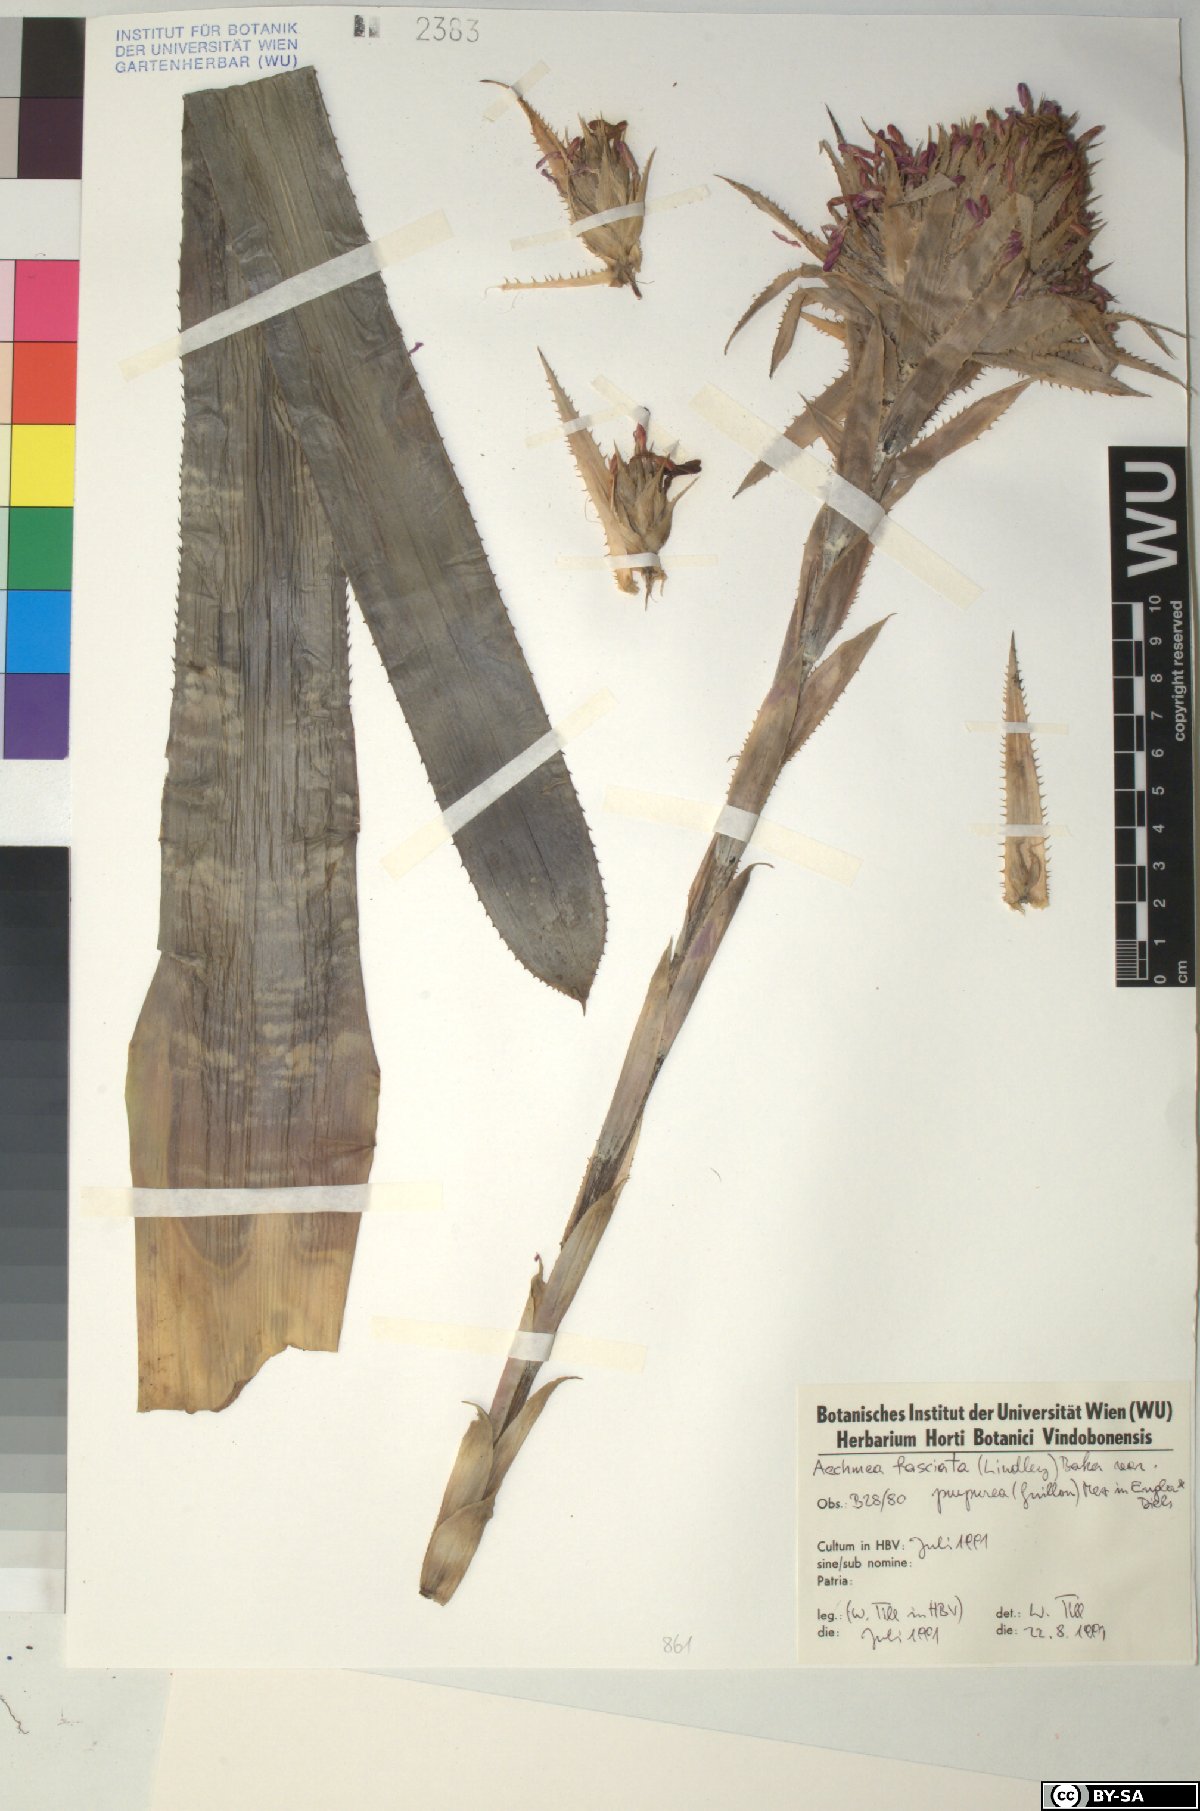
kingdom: Plantae
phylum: Tracheophyta
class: Liliopsida
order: Poales
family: Bromeliaceae
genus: Aechmea
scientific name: Aechmea
